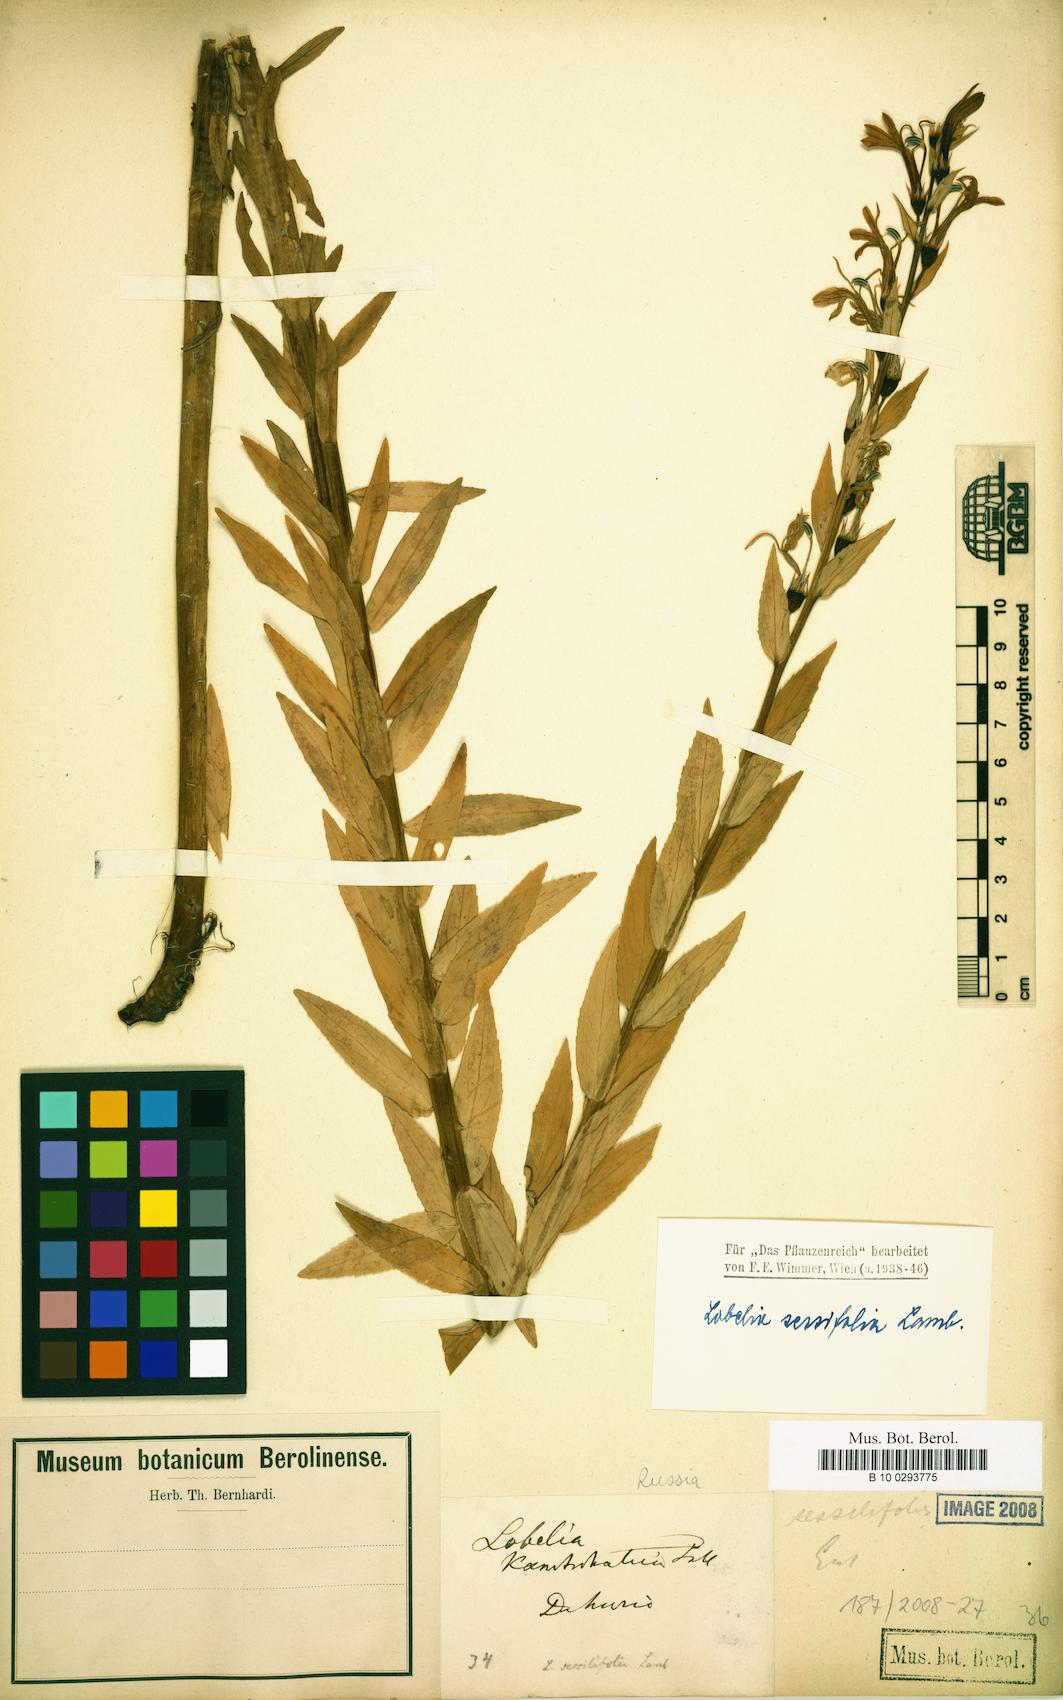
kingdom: Plantae
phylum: Tracheophyta
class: Magnoliopsida
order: Asterales
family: Campanulaceae
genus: Lobelia
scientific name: Lobelia sessilifolia
